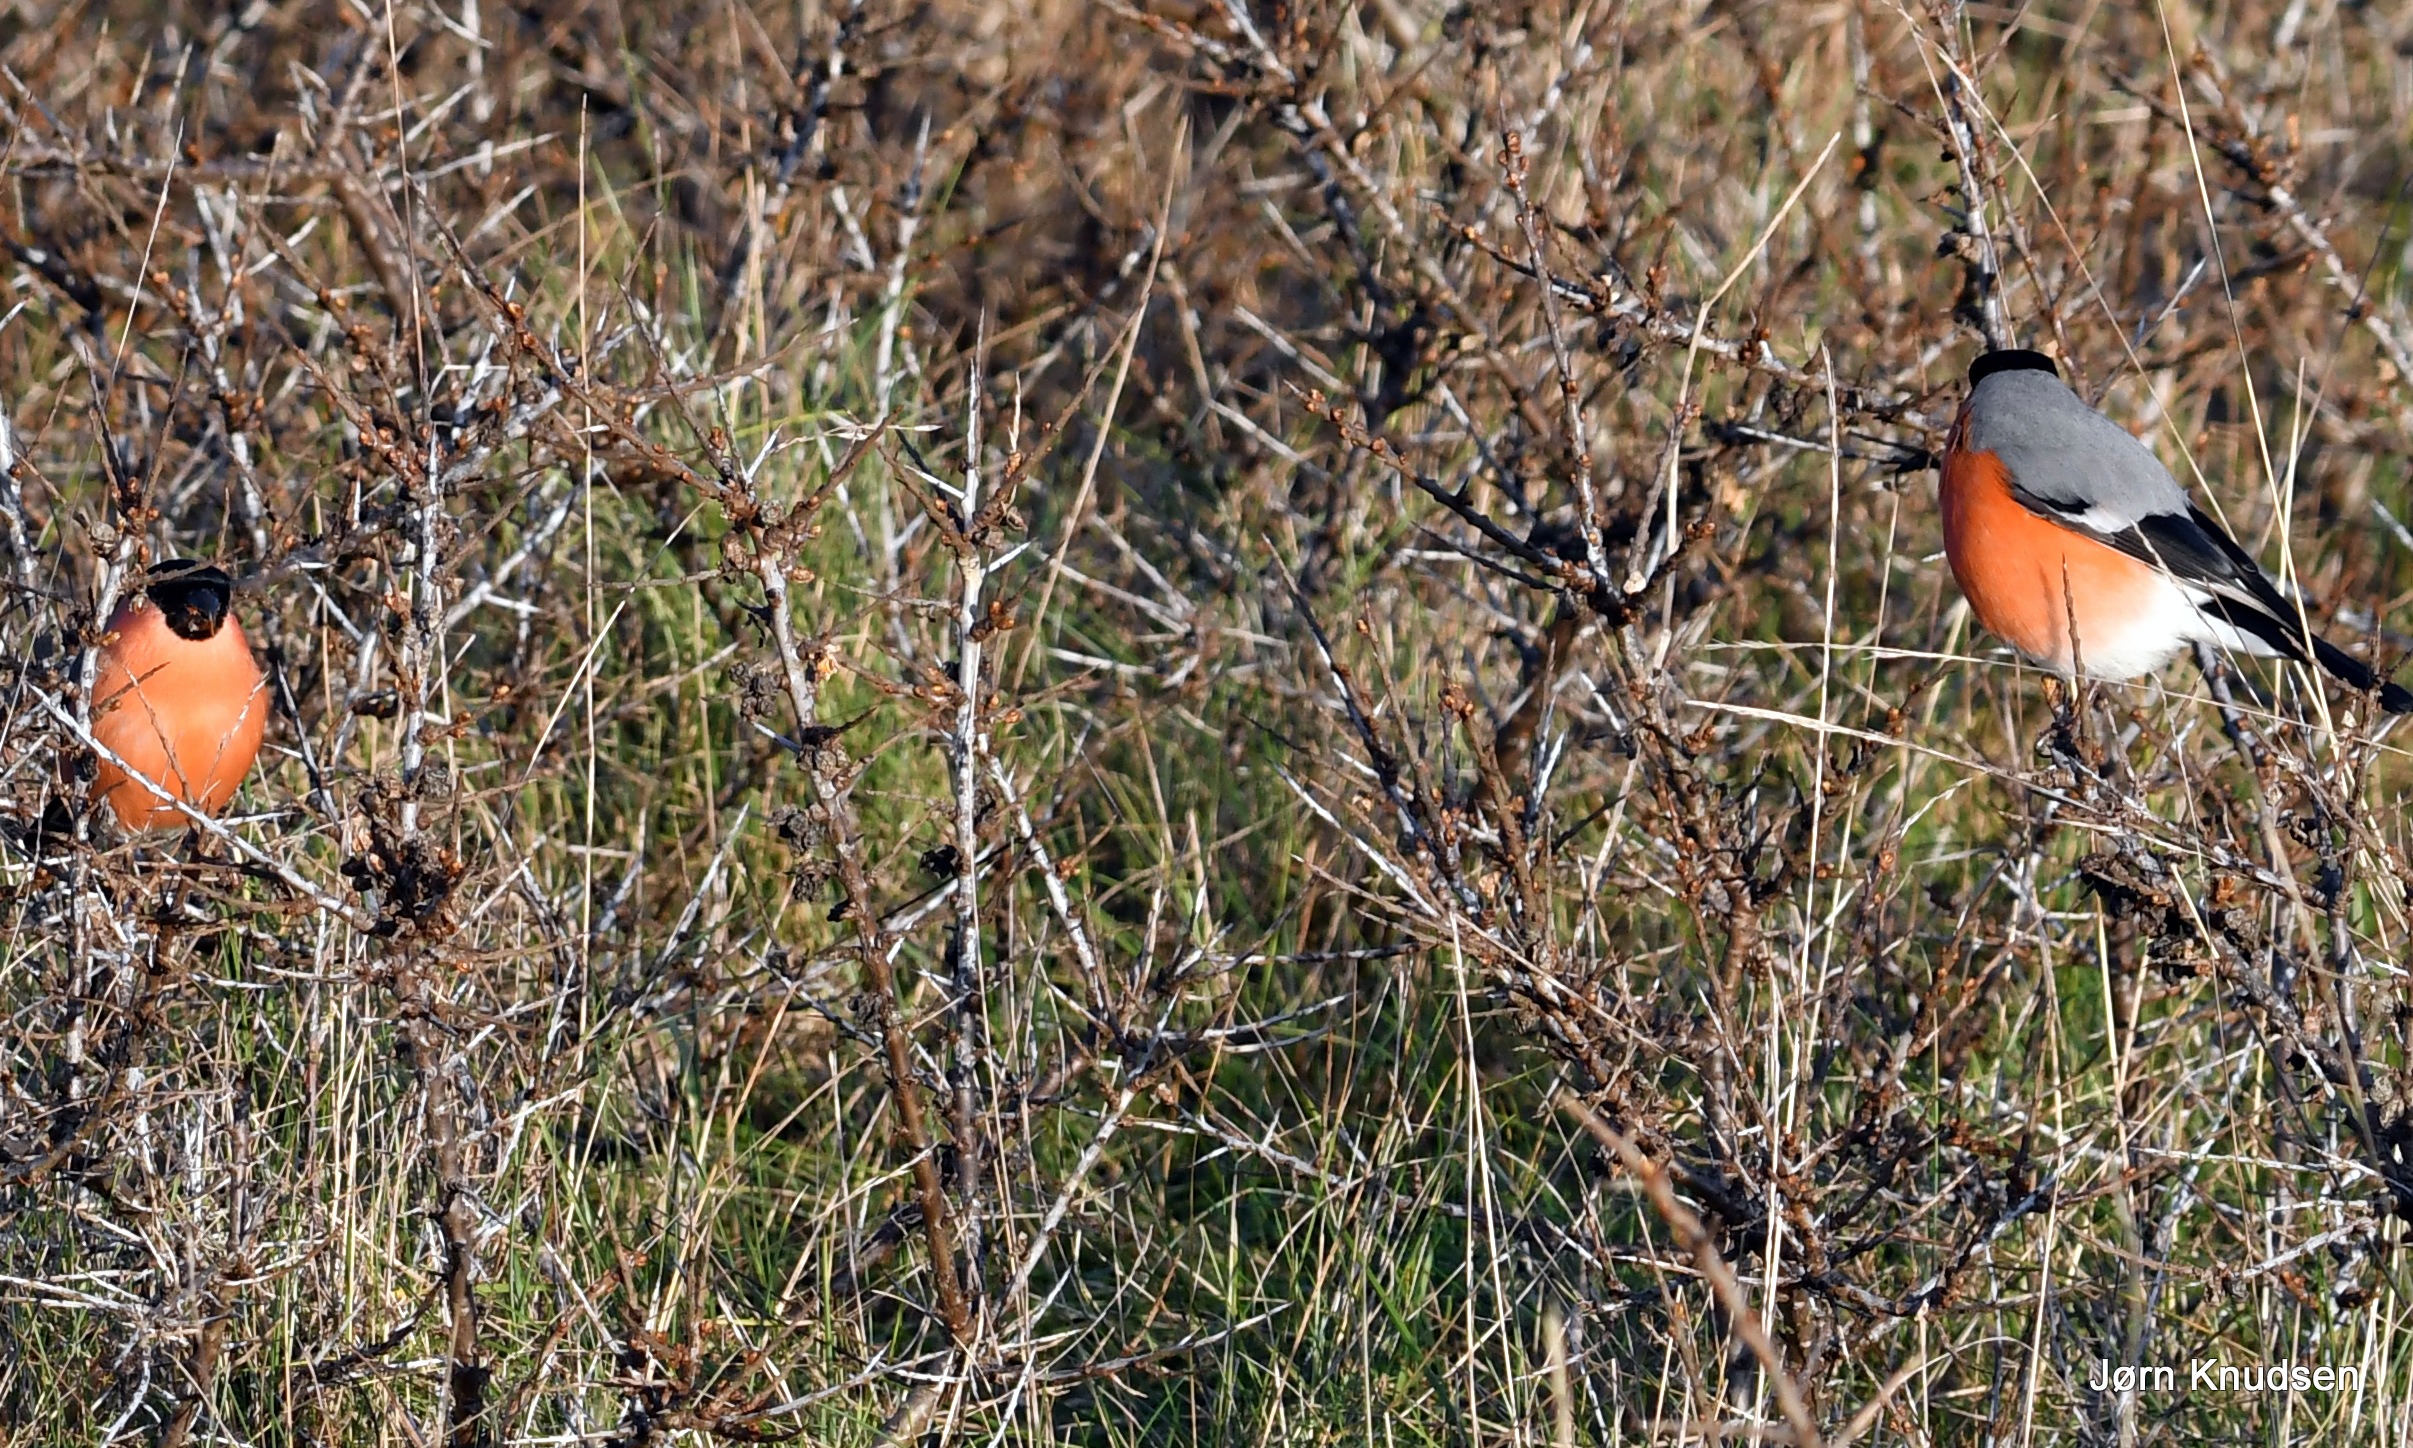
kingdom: Animalia
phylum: Chordata
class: Aves
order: Passeriformes
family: Fringillidae
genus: Pyrrhula
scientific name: Pyrrhula pyrrhula
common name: Dompap
